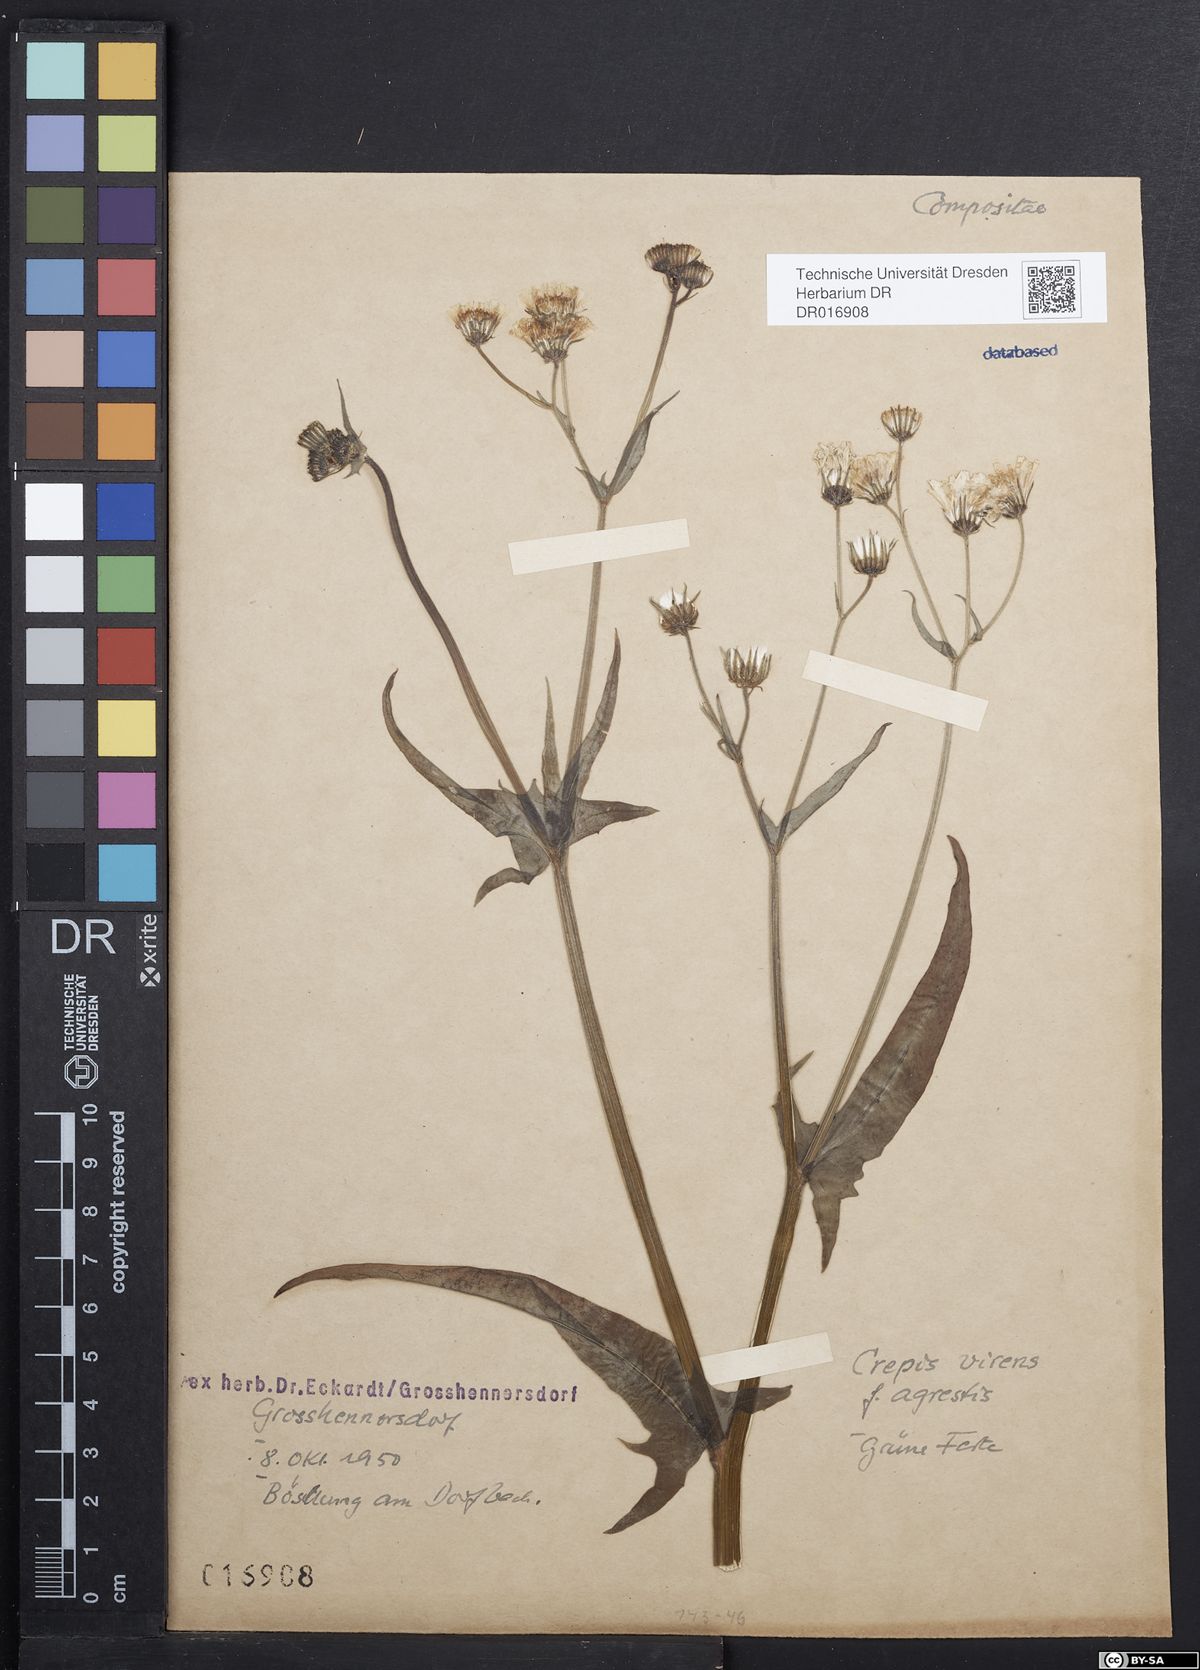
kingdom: Plantae
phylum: Tracheophyta
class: Magnoliopsida
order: Asterales
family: Asteraceae
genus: Crepis
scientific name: Crepis capillaris
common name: Smooth hawksbeard
